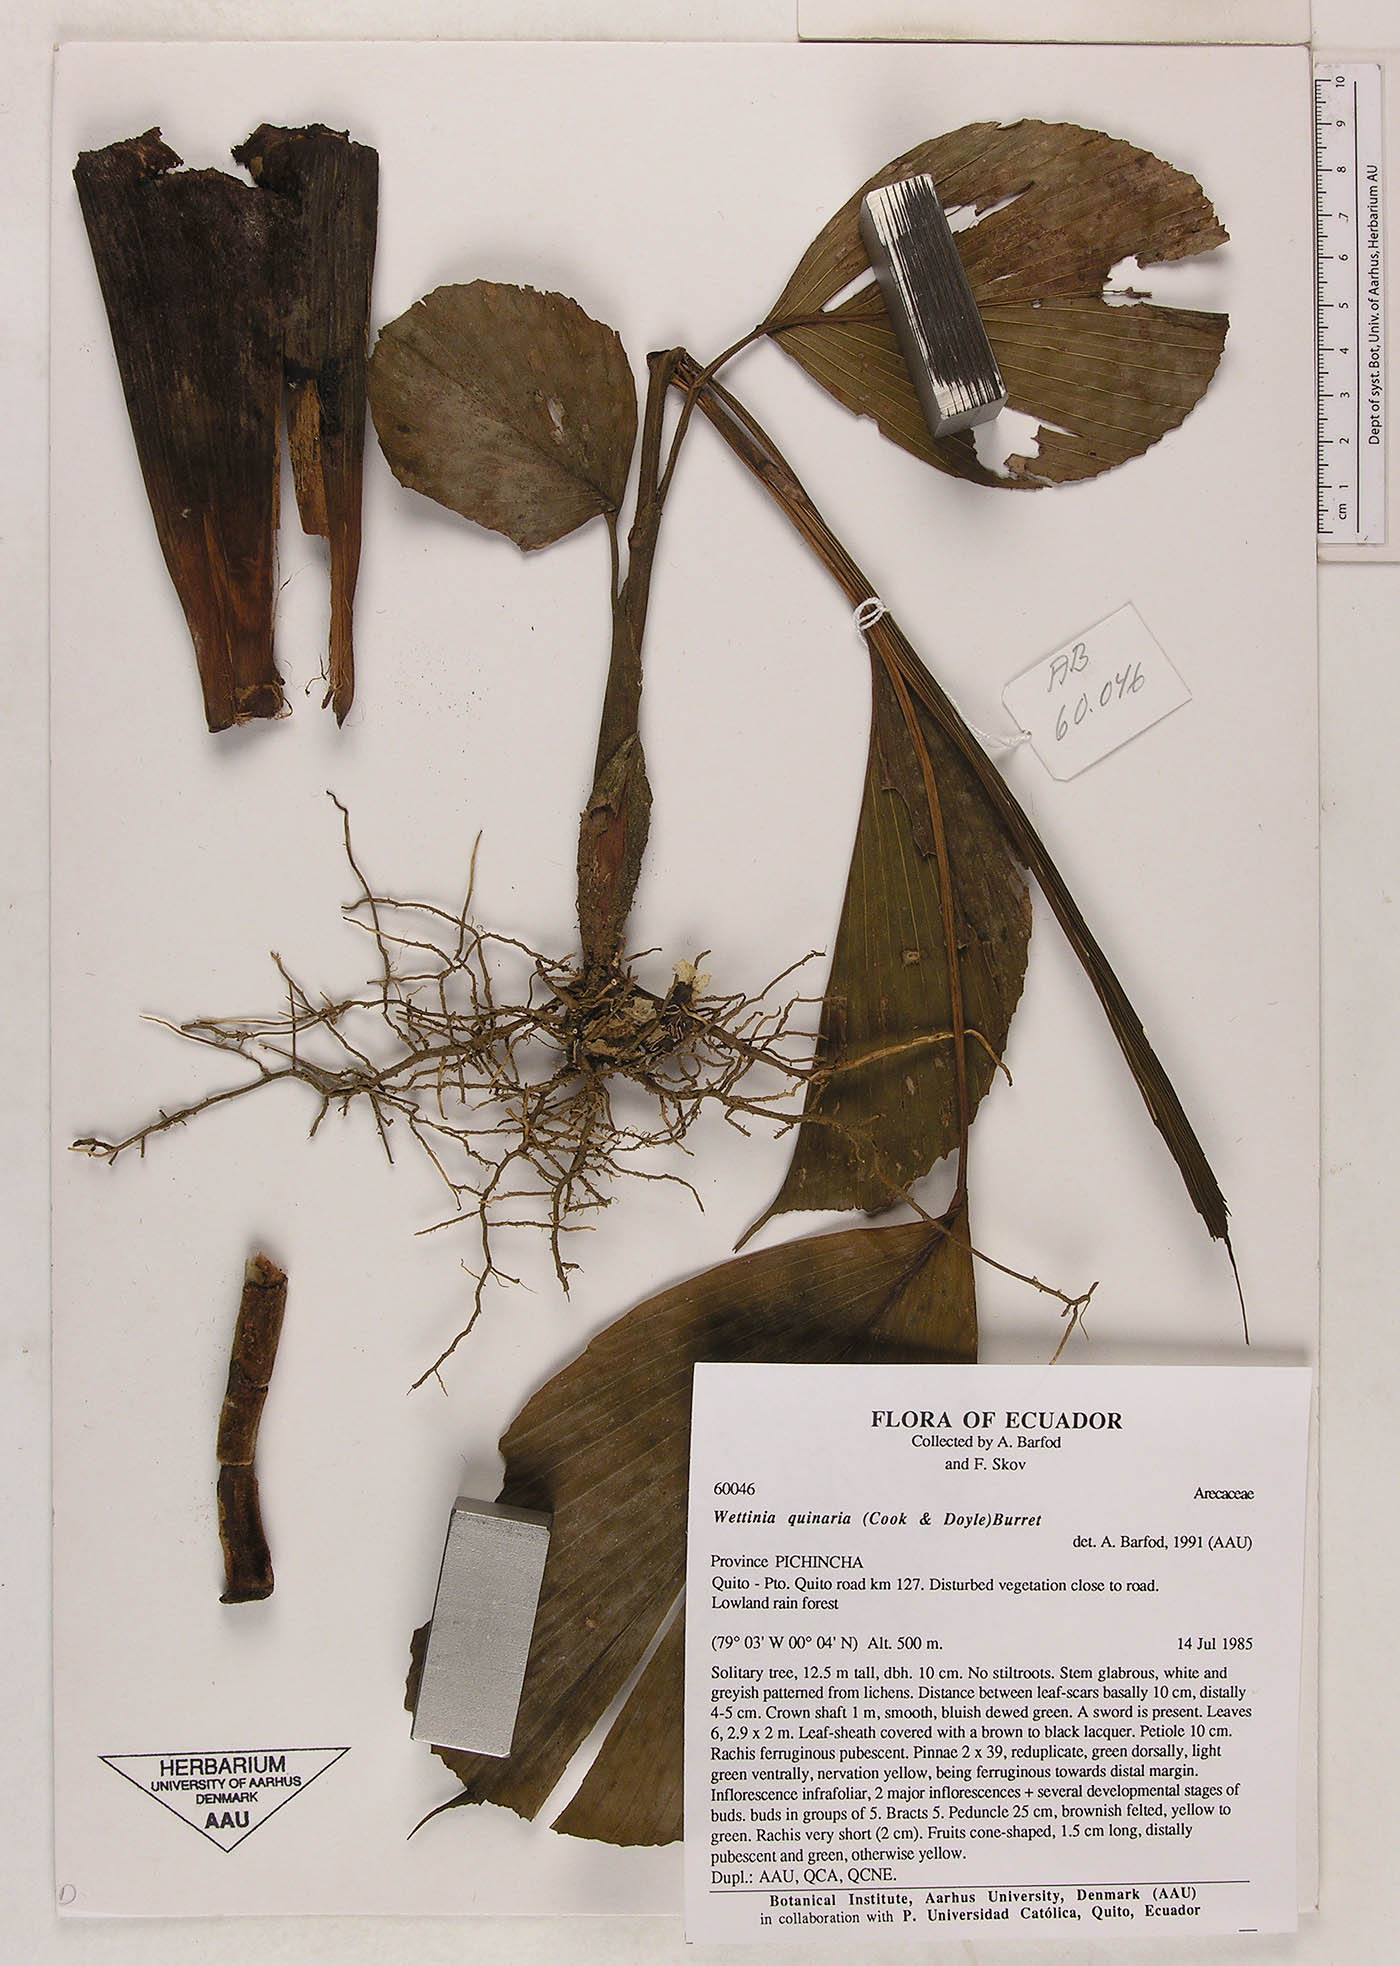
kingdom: Plantae
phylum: Tracheophyta
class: Liliopsida
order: Arecales
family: Arecaceae
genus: Wettinia
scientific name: Wettinia quinaria
